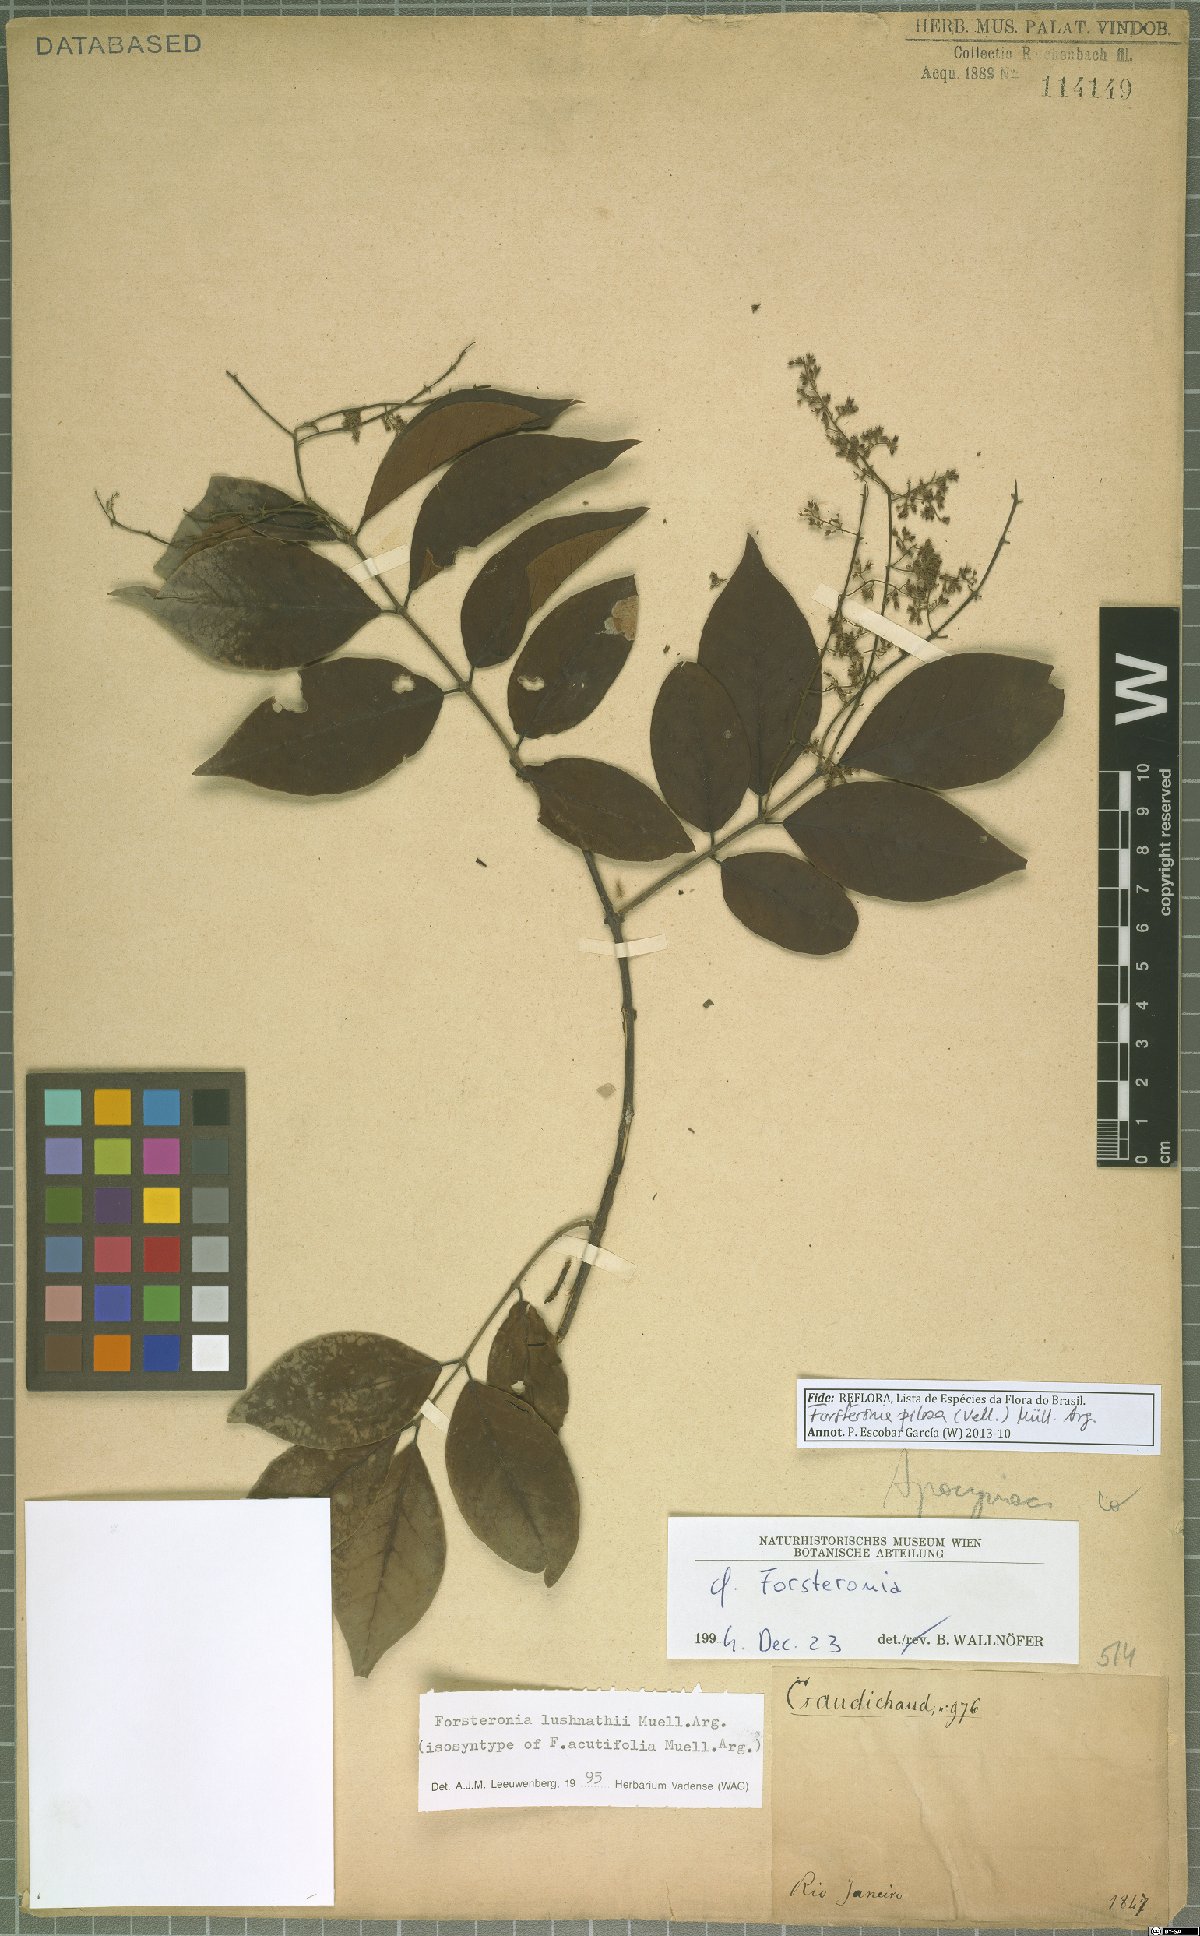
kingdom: Plantae
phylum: Tracheophyta
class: Magnoliopsida
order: Gentianales
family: Apocynaceae
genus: Forsteronia
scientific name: Forsteronia pilosa
